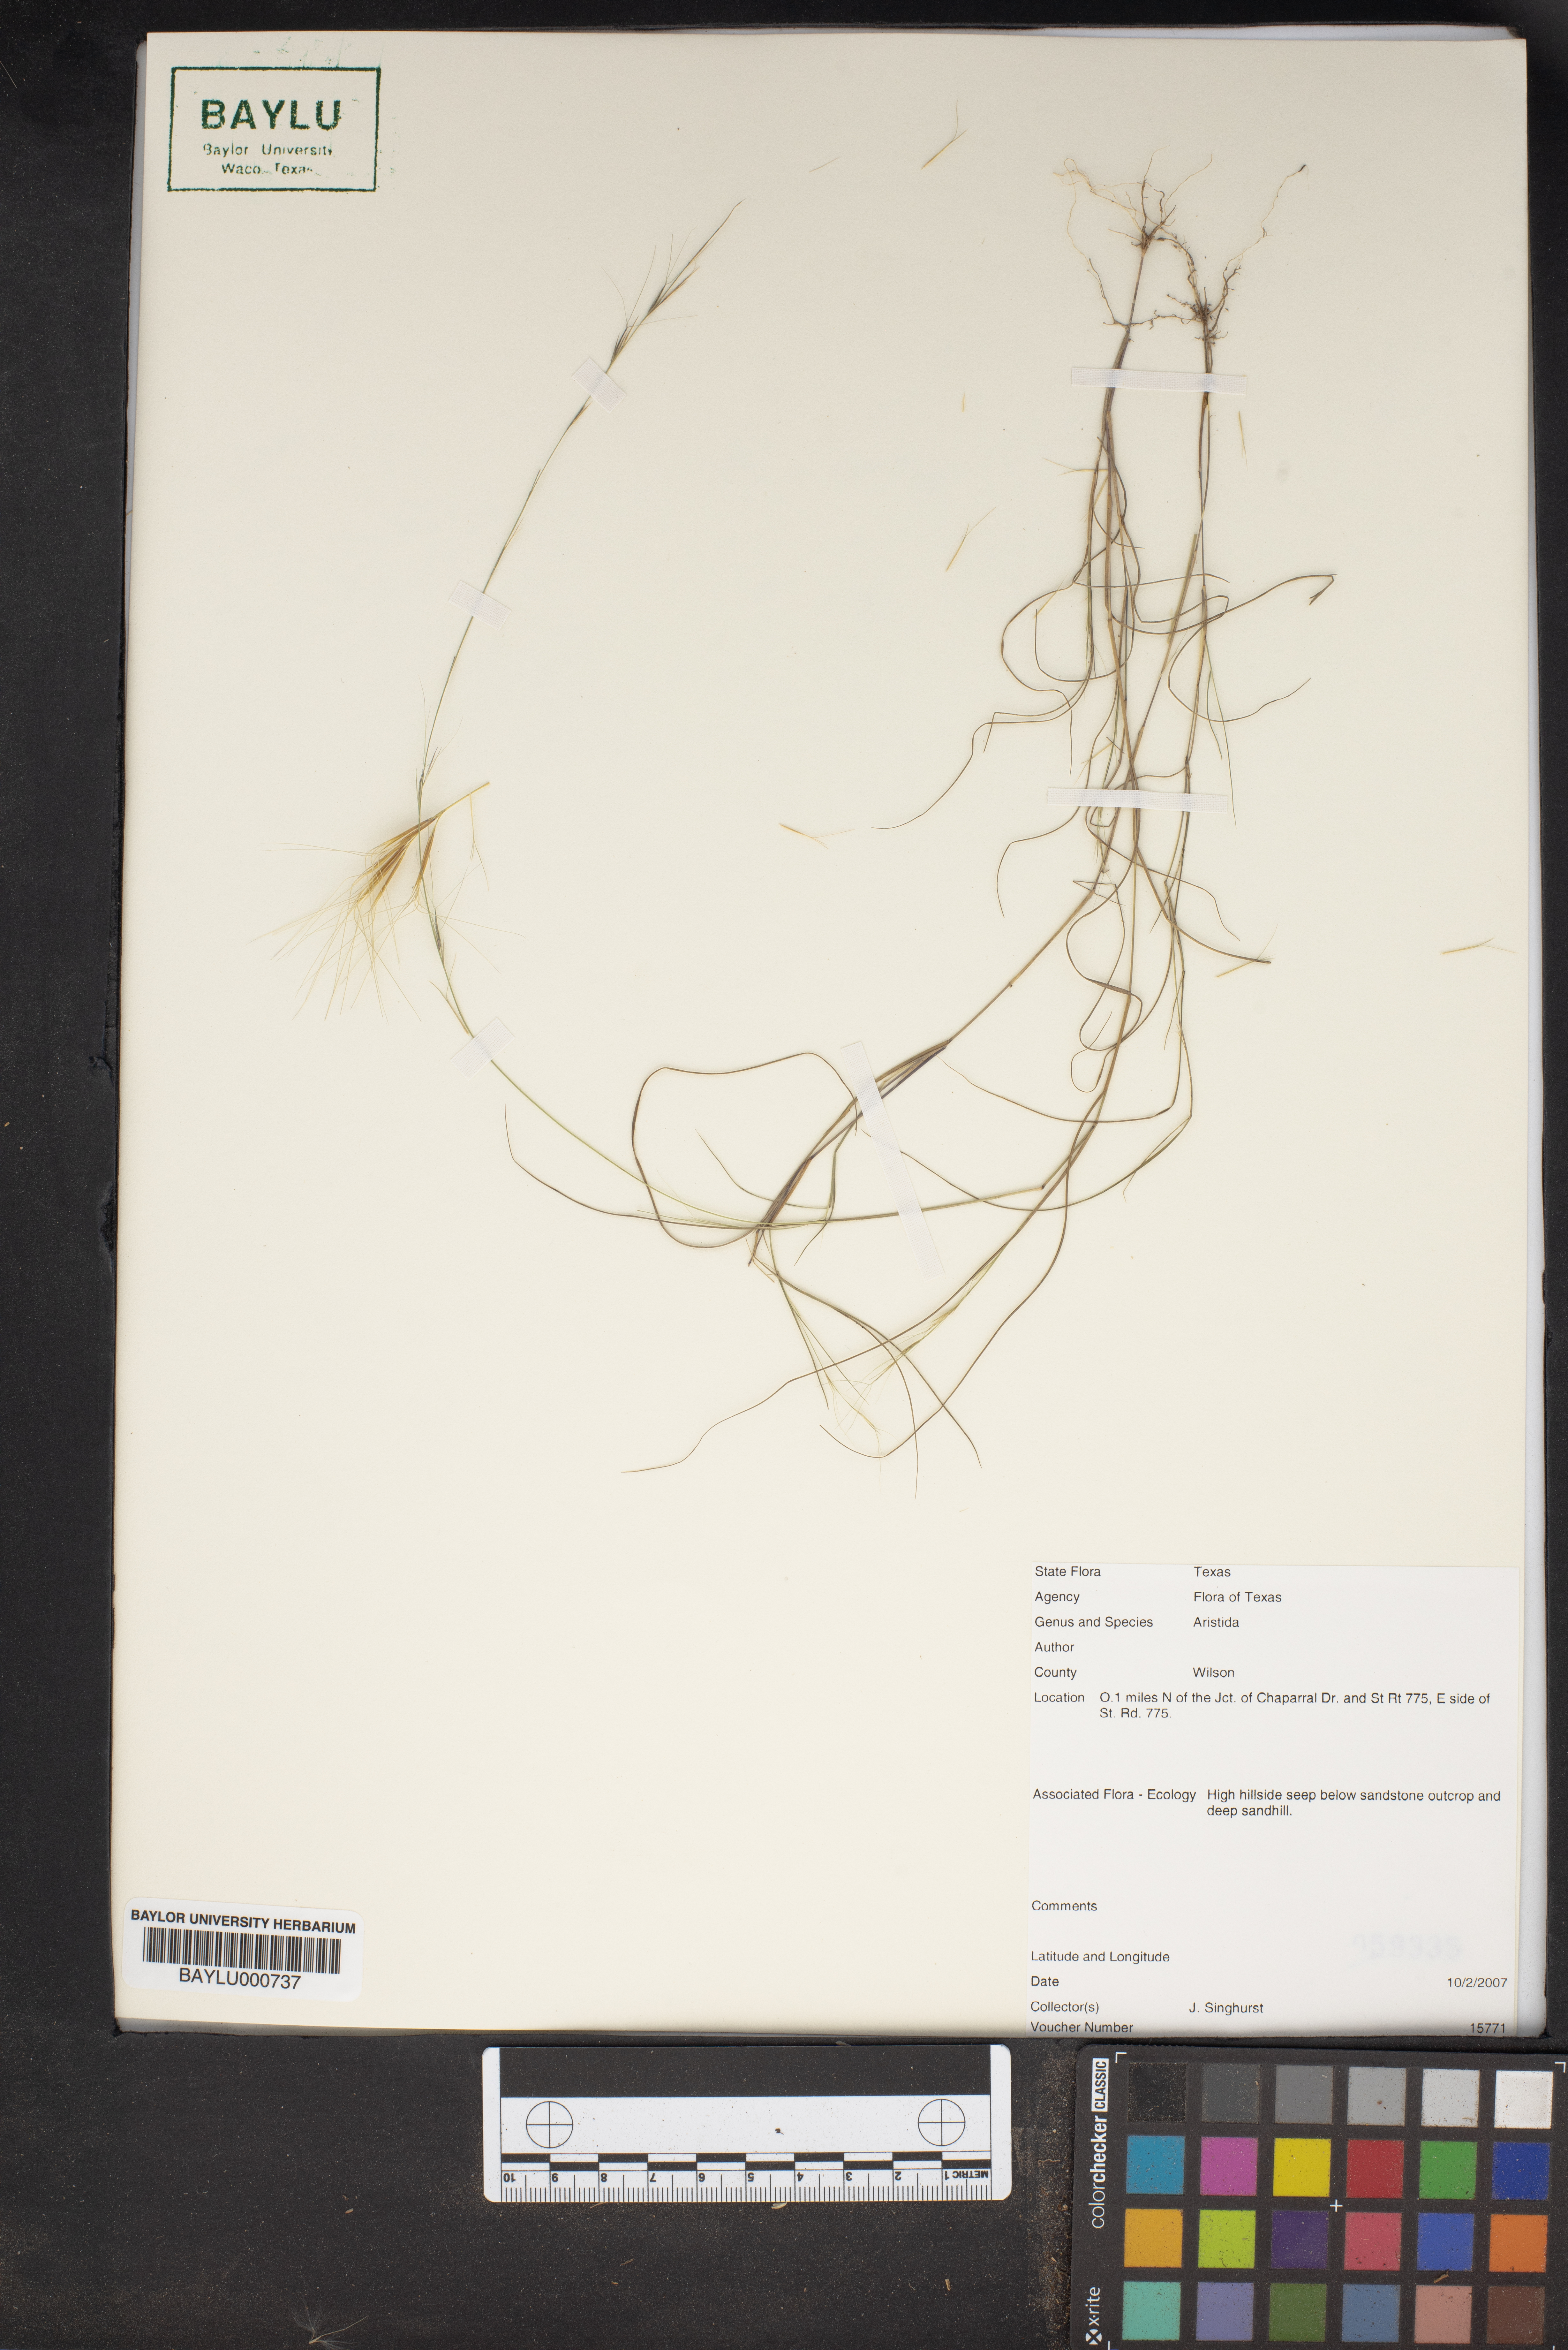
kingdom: Plantae
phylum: Tracheophyta
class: Liliopsida
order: Poales
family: Poaceae
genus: Aristida
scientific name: Aristida
